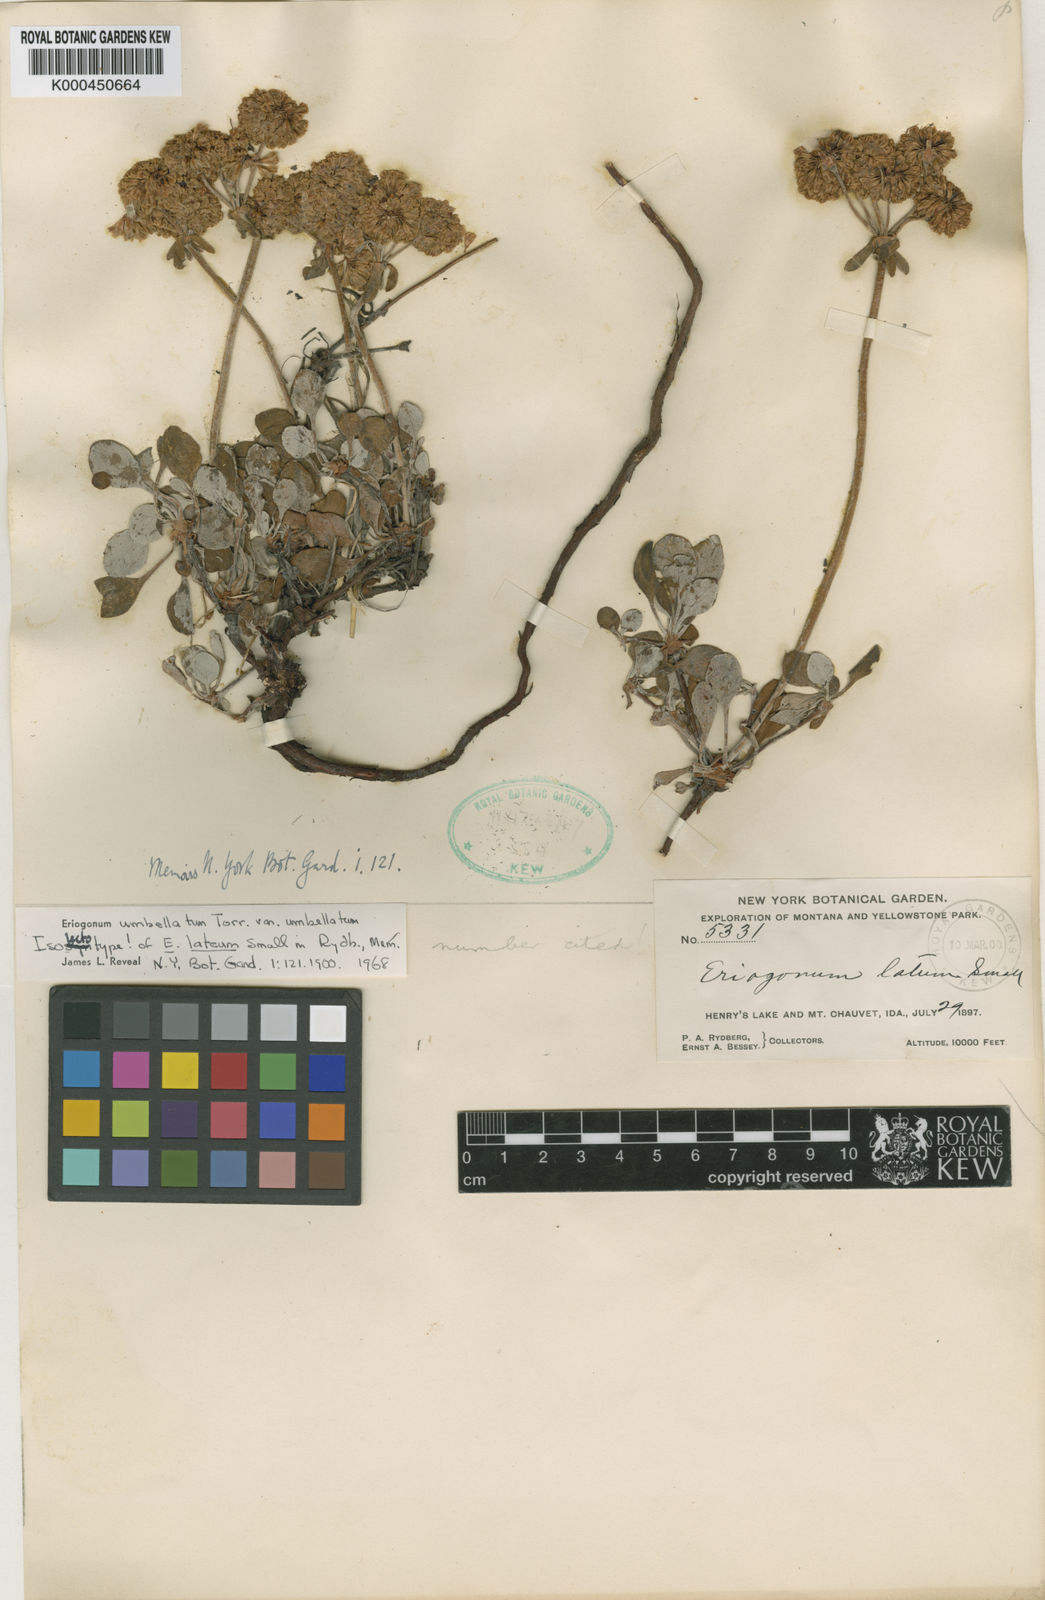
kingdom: Plantae
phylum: Tracheophyta
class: Magnoliopsida
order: Caryophyllales
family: Polygonaceae
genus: Eriogonum
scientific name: Eriogonum umbellatum
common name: Sulfur-buckwheat
